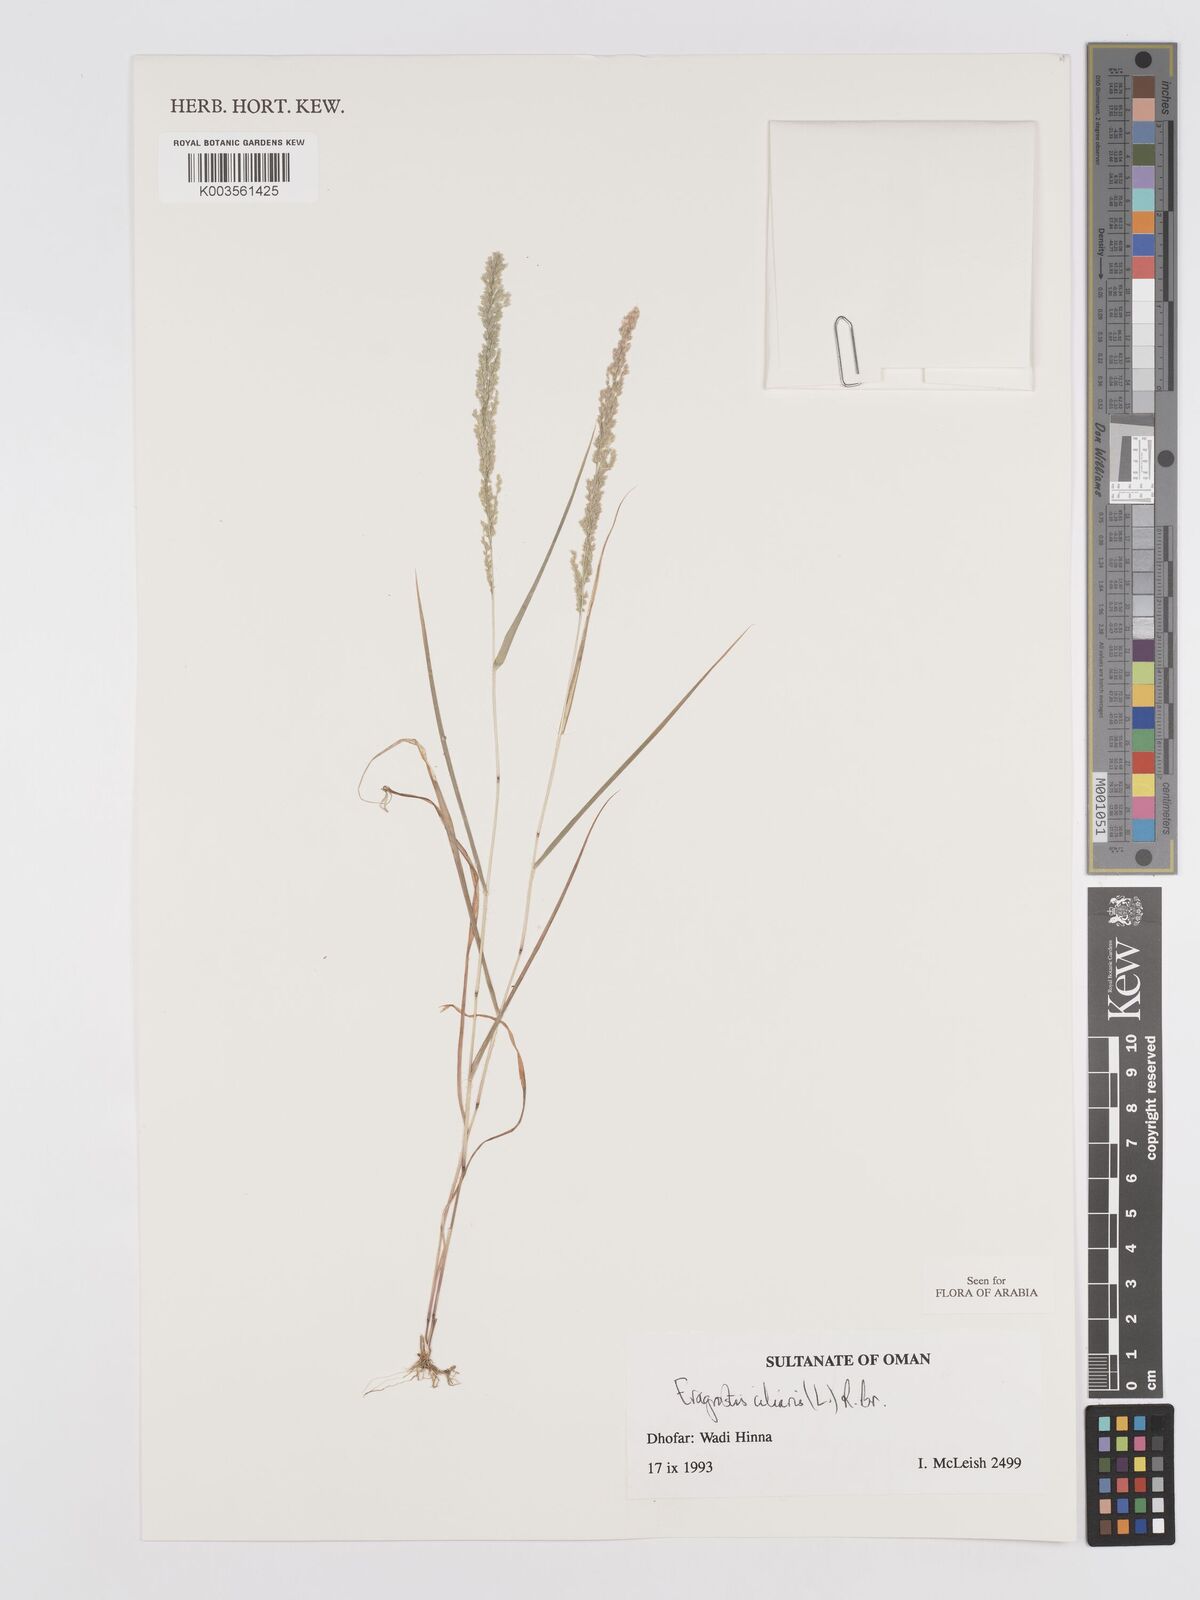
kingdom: Plantae
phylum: Tracheophyta
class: Liliopsida
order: Poales
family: Poaceae
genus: Eragrostis
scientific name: Eragrostis ciliaris
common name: Gophertail lovegrass
